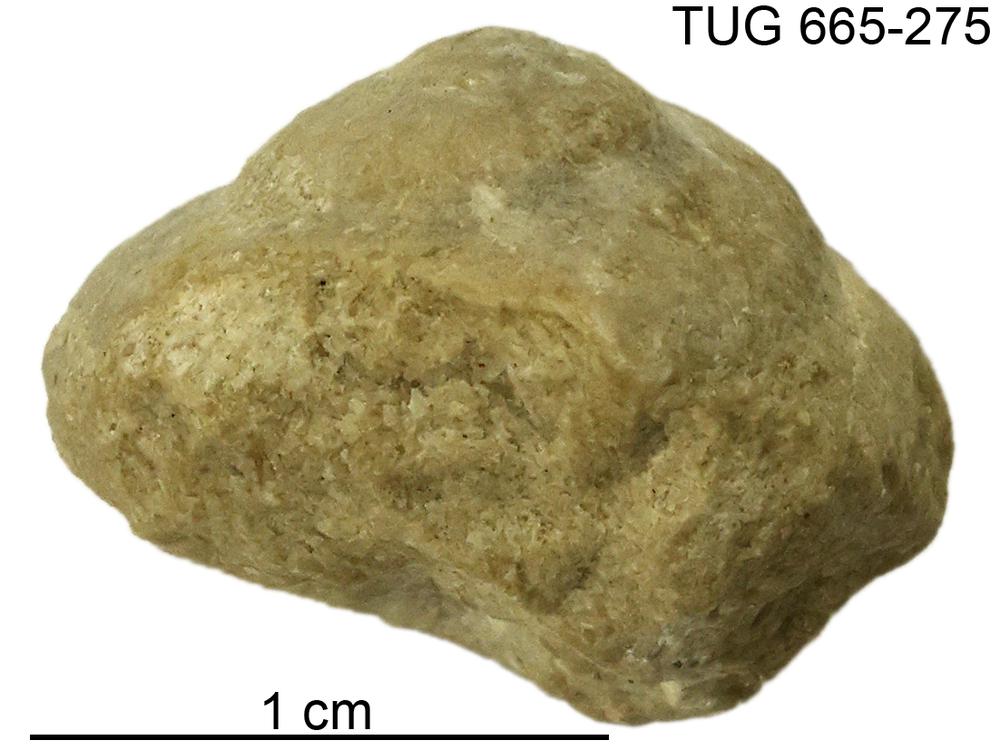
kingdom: Animalia
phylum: Mollusca
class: Gastropoda
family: Euomphalidae
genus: Straparollus
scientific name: Straparollus
